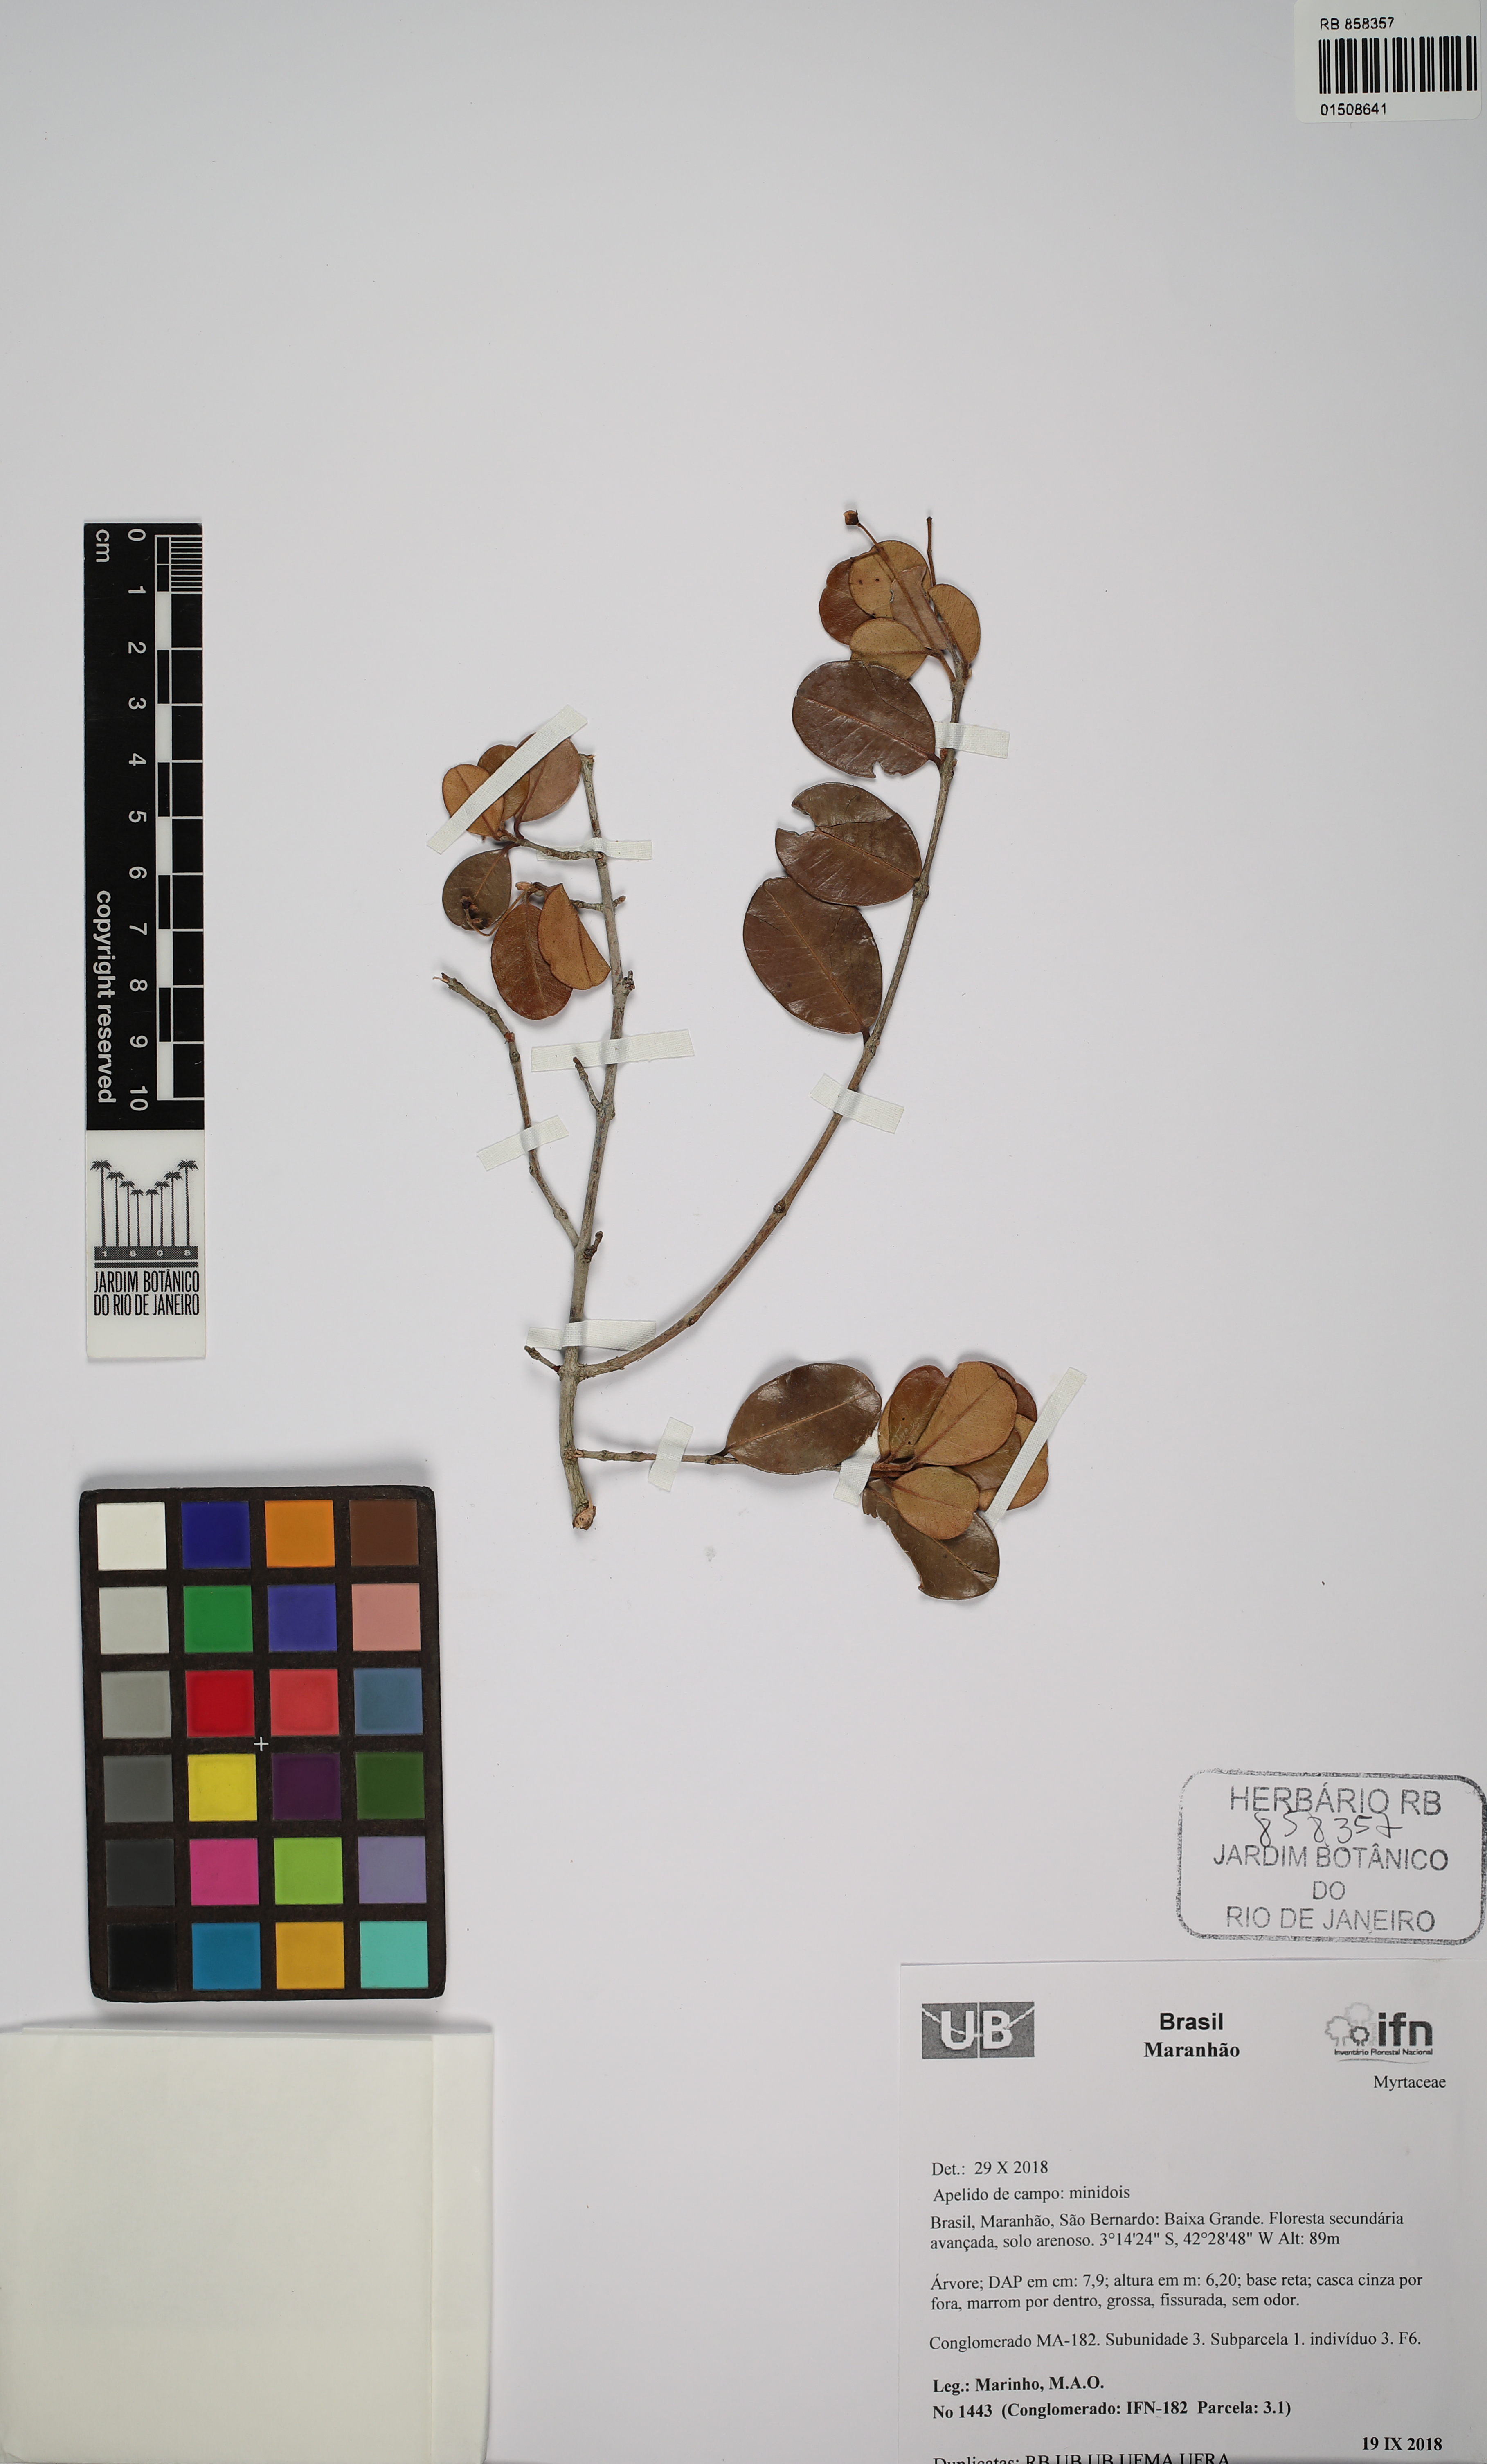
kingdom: Plantae
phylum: Tracheophyta
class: Magnoliopsida
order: Myrtales
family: Myrtaceae
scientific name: Myrtaceae
